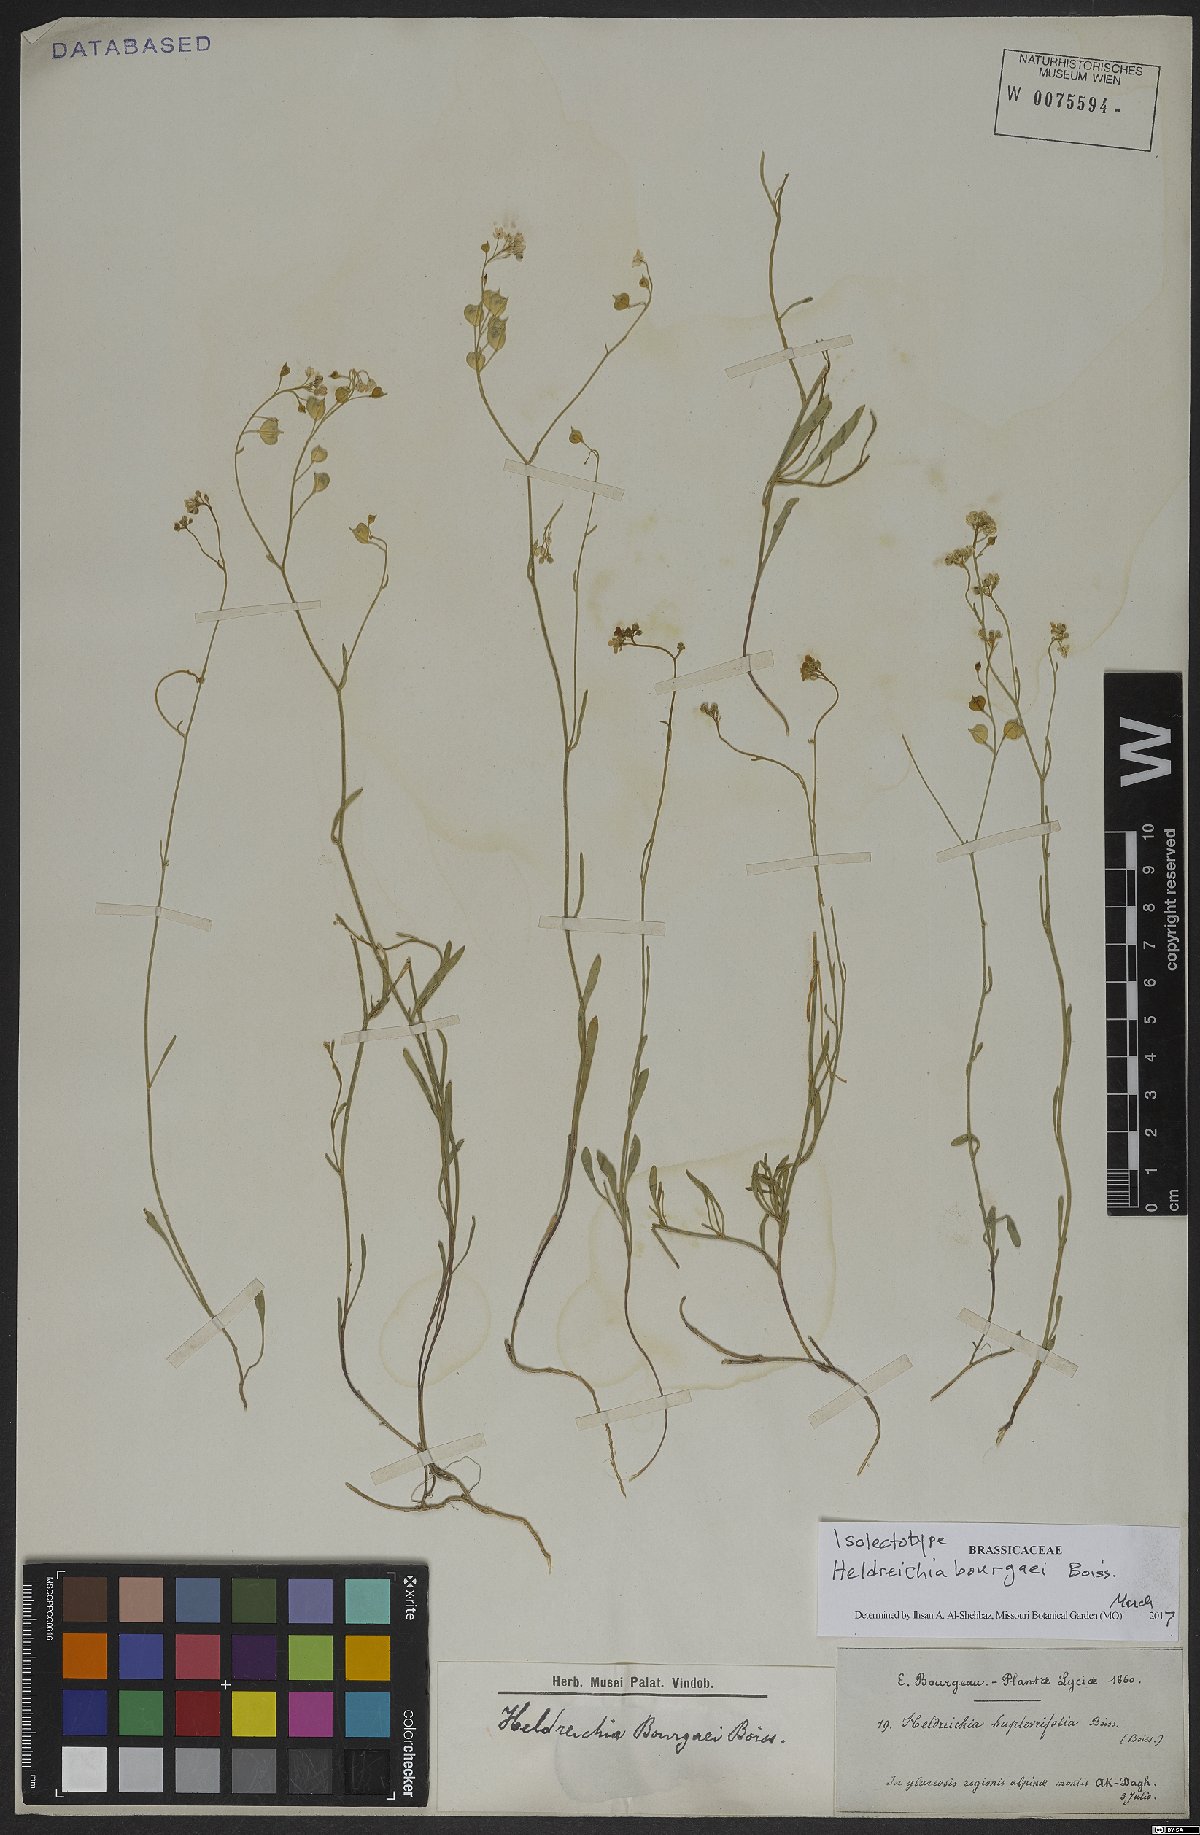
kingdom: Plantae
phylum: Tracheophyta
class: Magnoliopsida
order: Brassicales
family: Brassicaceae
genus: Heldreichia
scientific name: Heldreichia bupleurifolia
